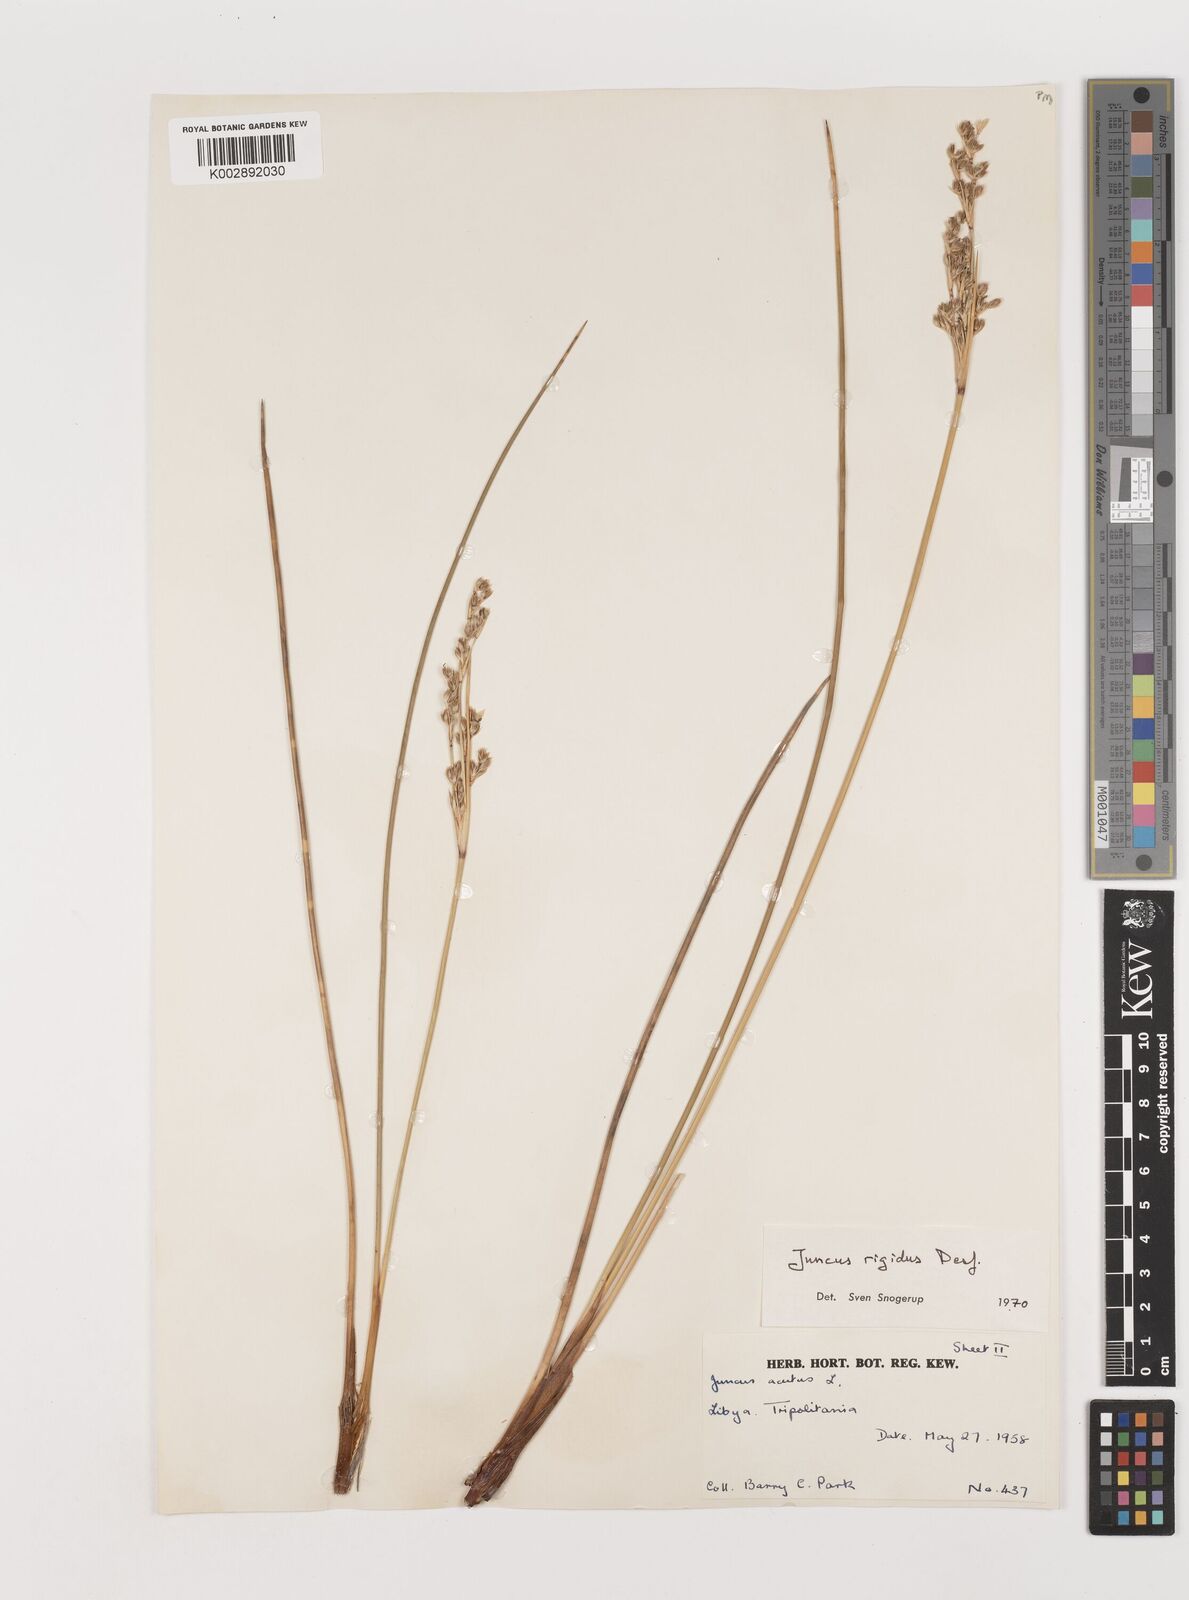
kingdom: Plantae
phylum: Tracheophyta
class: Liliopsida
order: Poales
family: Juncaceae
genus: Juncus
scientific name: Juncus rigidus
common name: Hard sea rush
